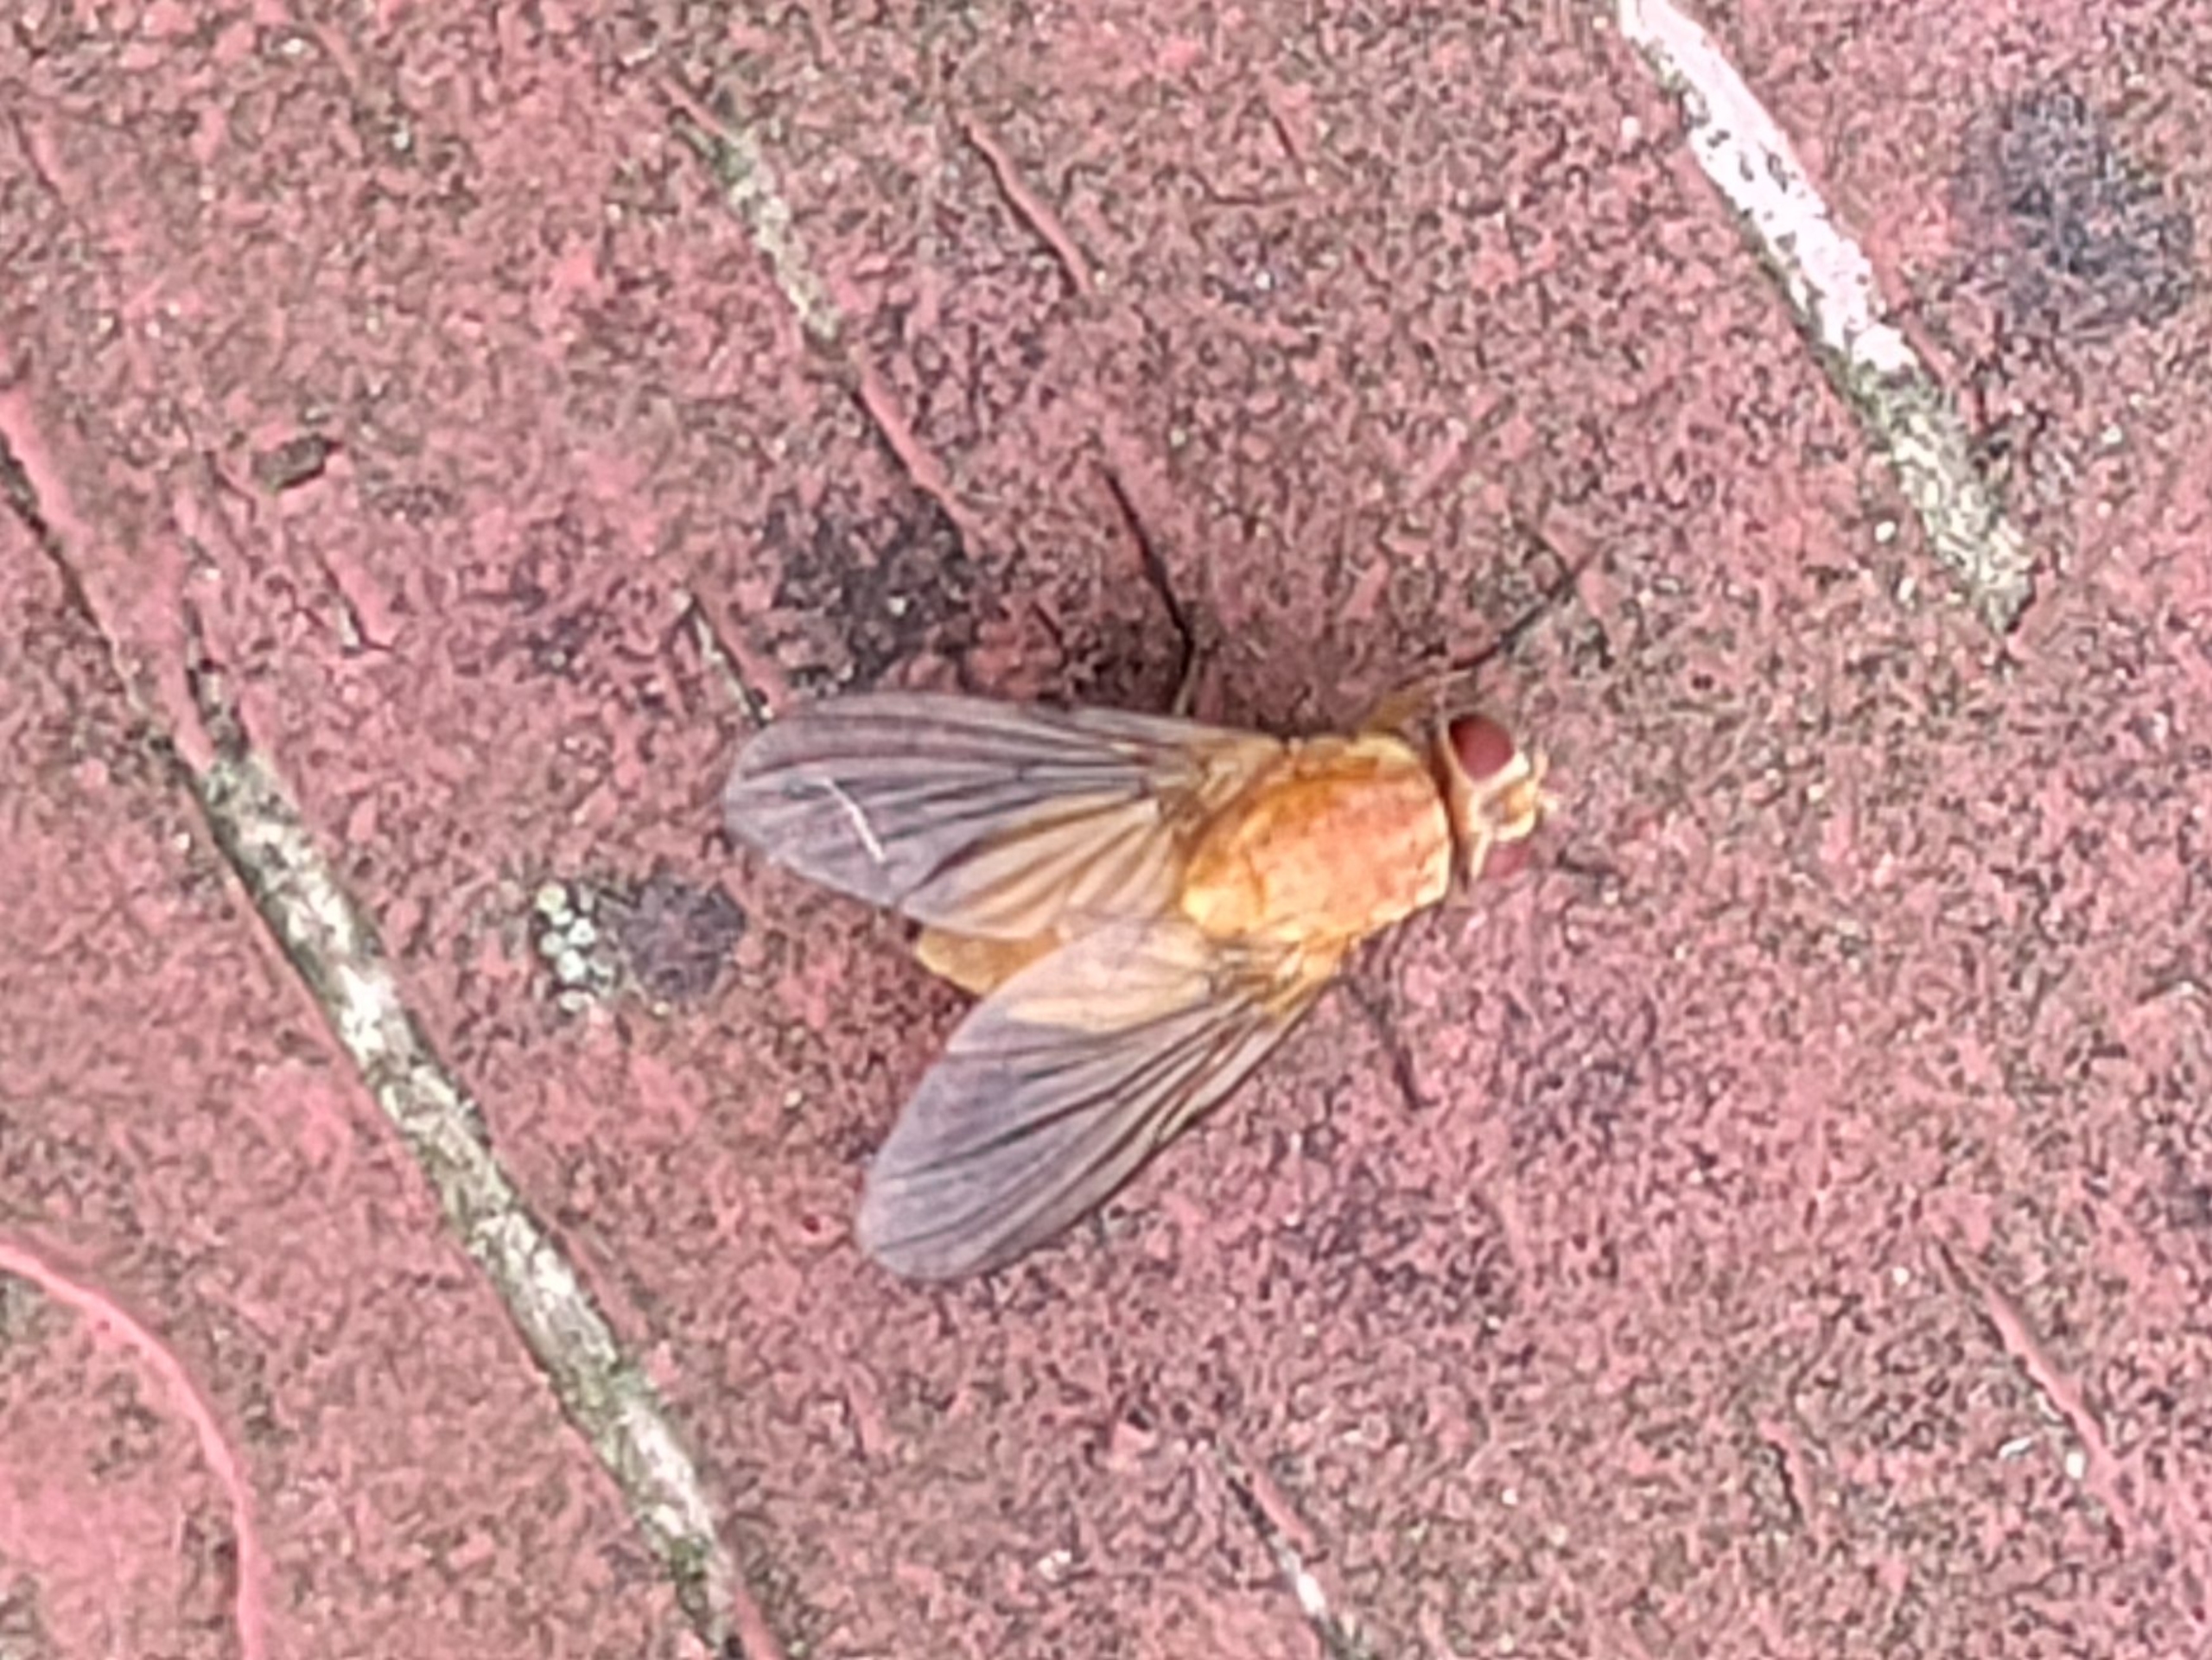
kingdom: Animalia
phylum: Arthropoda
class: Insecta
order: Diptera
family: Muscidae
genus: Phaonia
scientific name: Phaonia pallida
